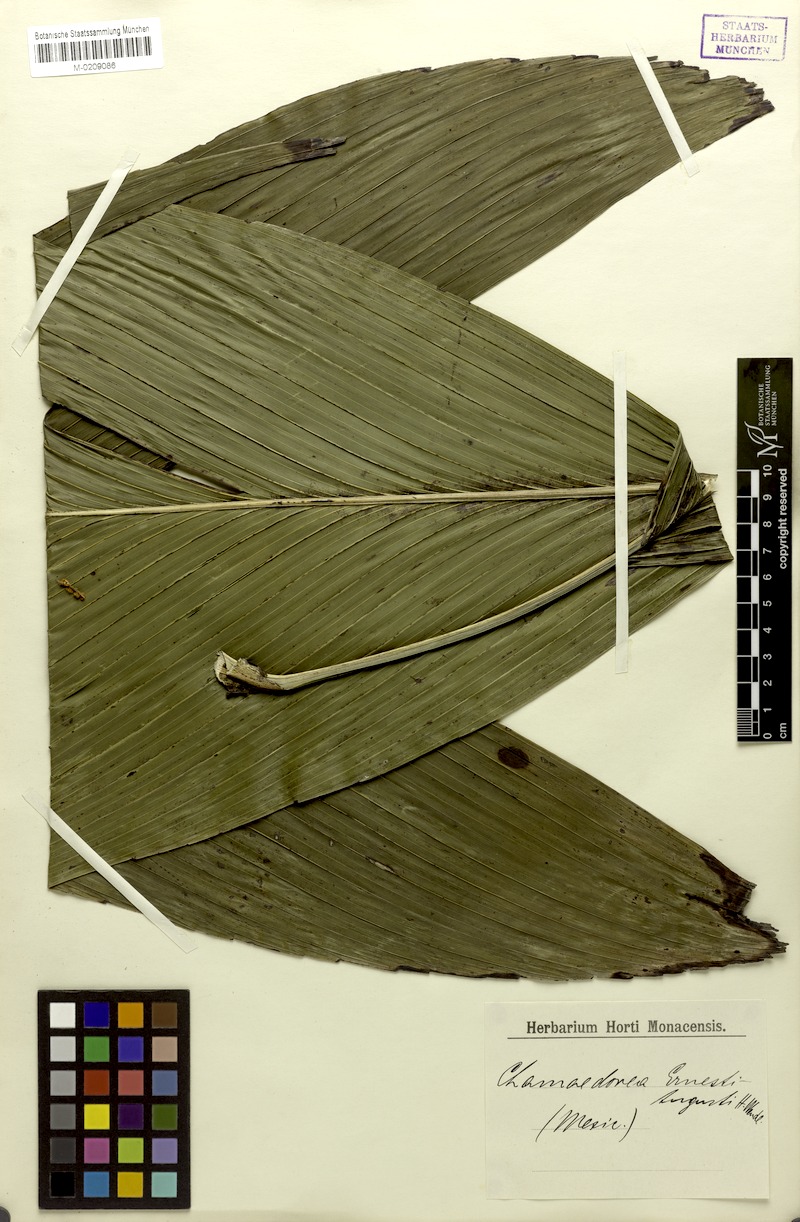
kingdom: Plantae
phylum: Tracheophyta
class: Liliopsida
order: Arecales
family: Arecaceae
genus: Chamaedorea
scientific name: Chamaedorea ernesti-augusti
